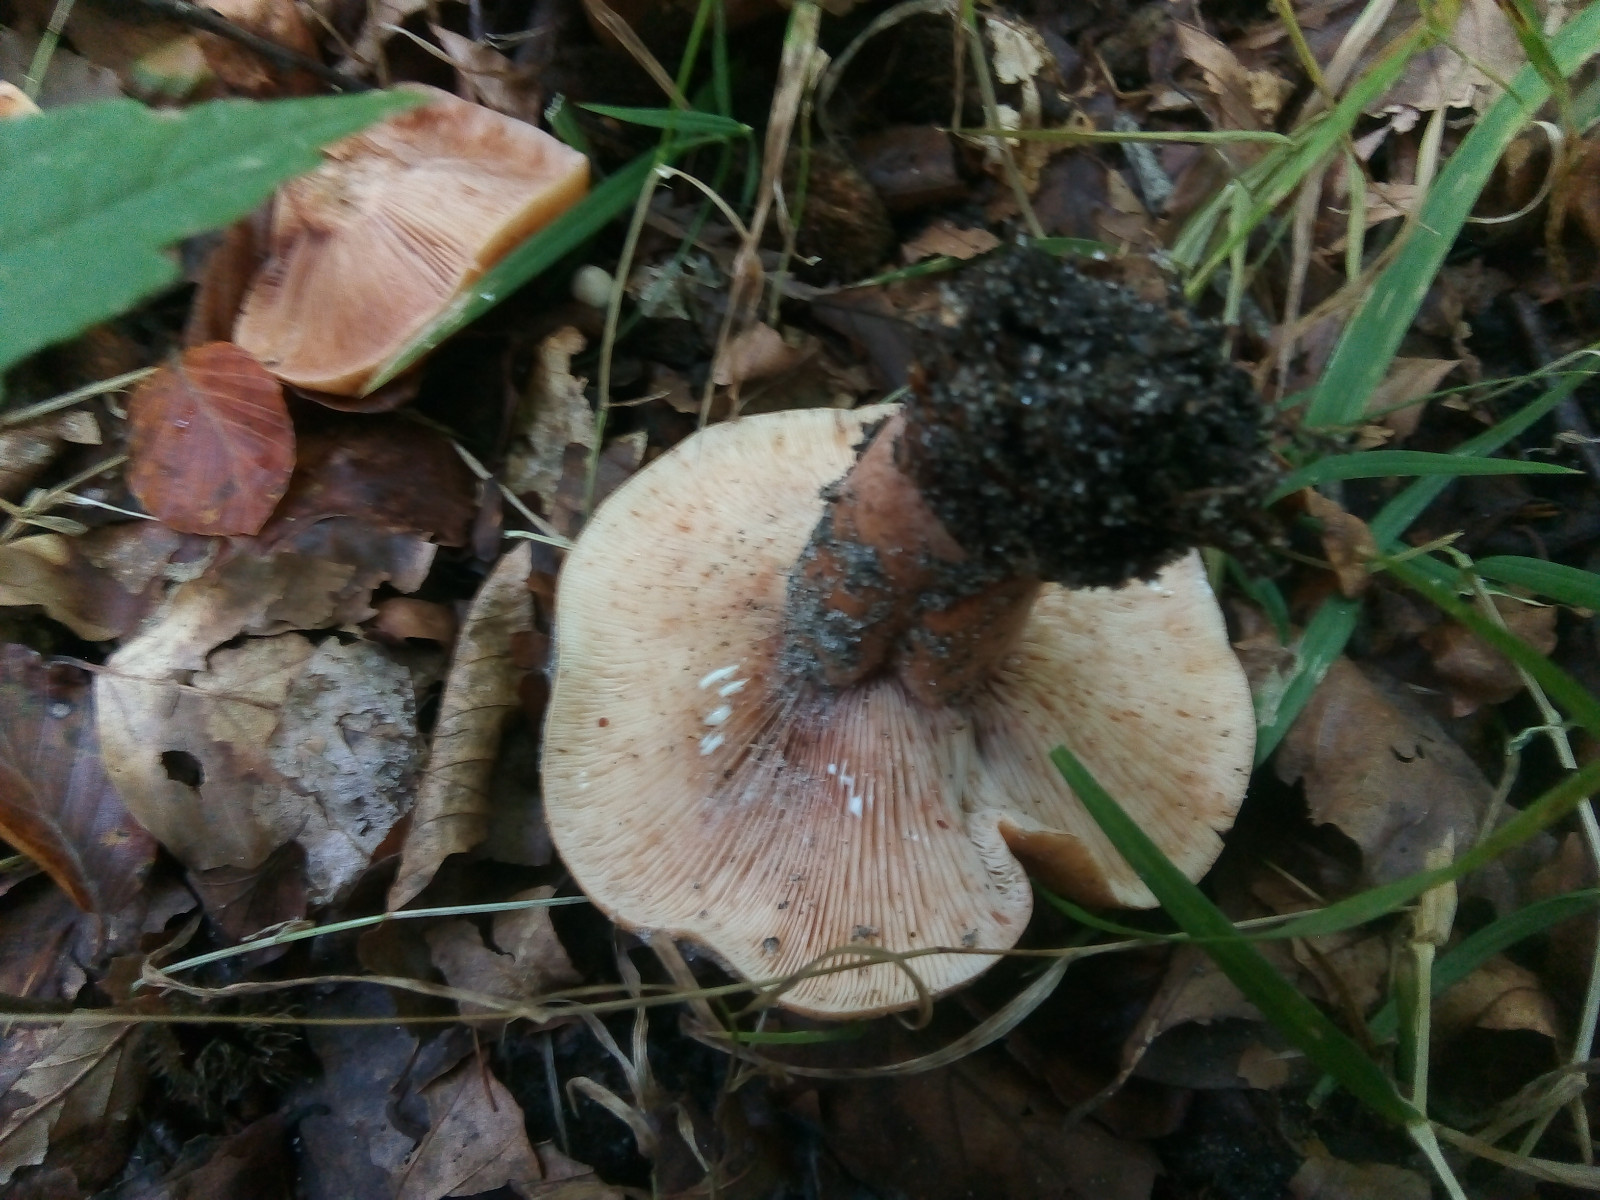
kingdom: Fungi
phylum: Basidiomycota
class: Agaricomycetes
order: Russulales
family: Russulaceae
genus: Lactarius
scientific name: Lactarius
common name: mælkehat
